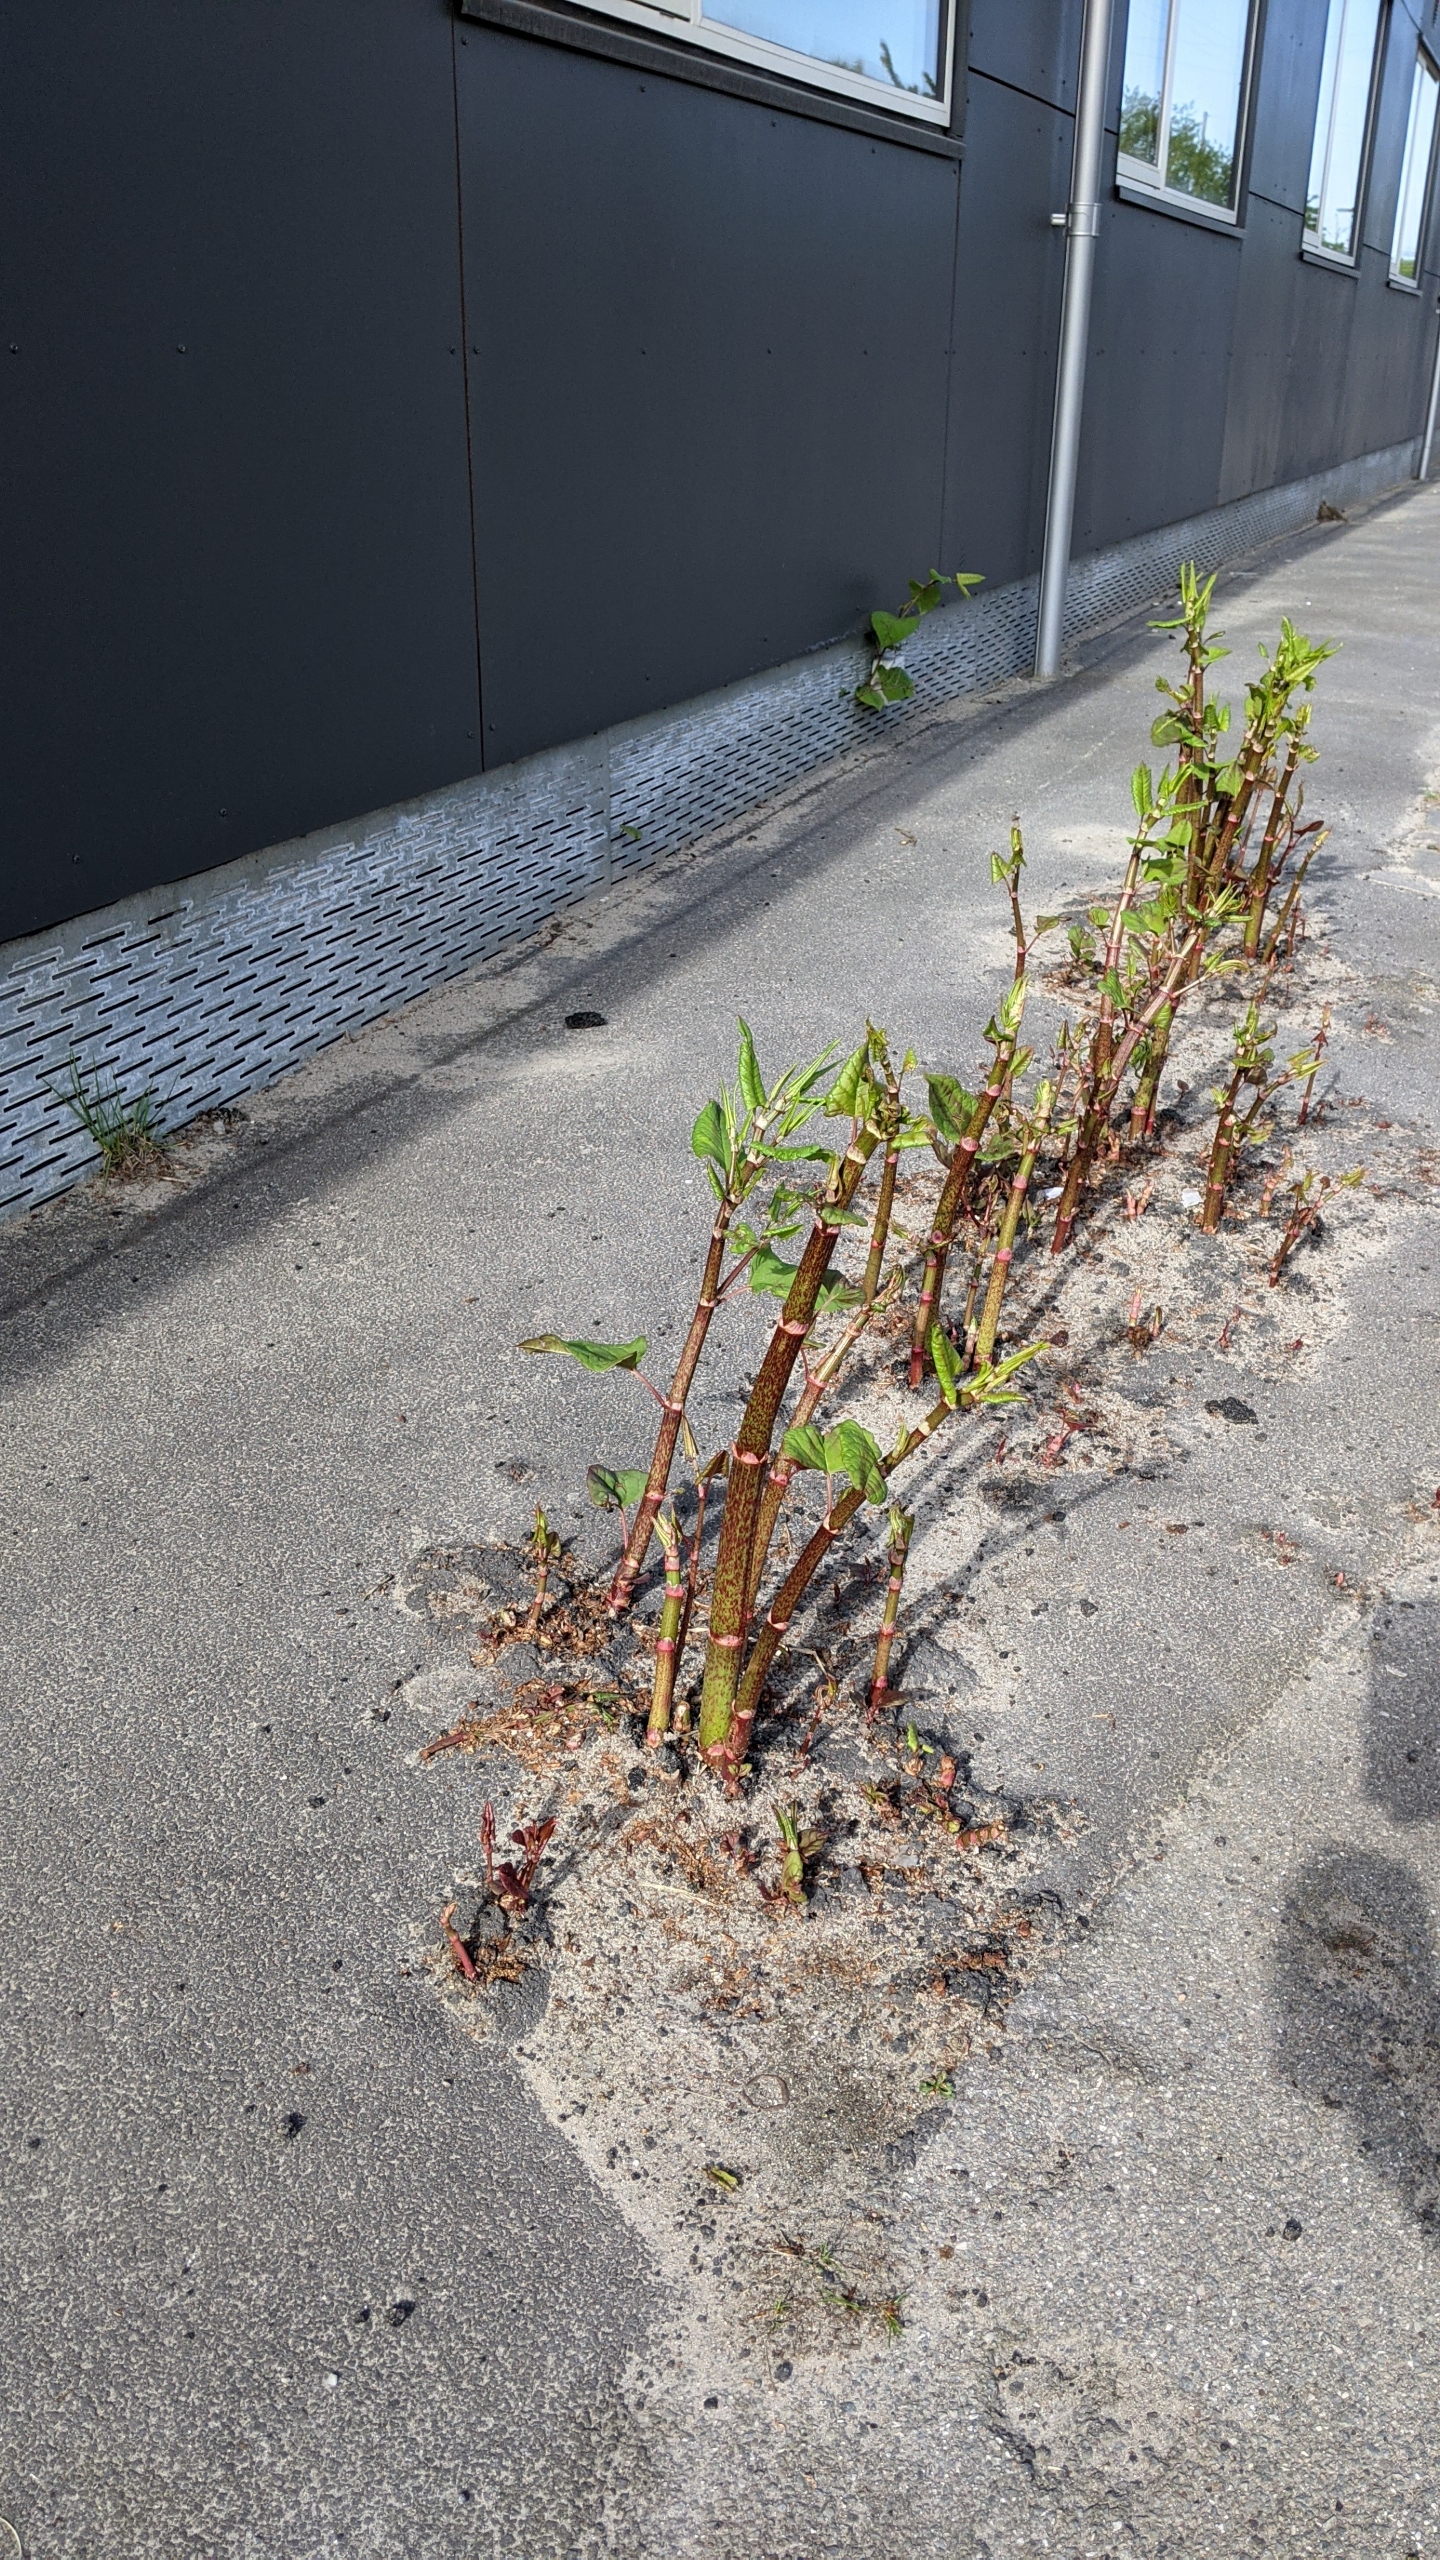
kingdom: Plantae
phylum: Tracheophyta
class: Magnoliopsida
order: Caryophyllales
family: Polygonaceae
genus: Reynoutria
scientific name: Reynoutria japonica
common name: Japan-pileurt
